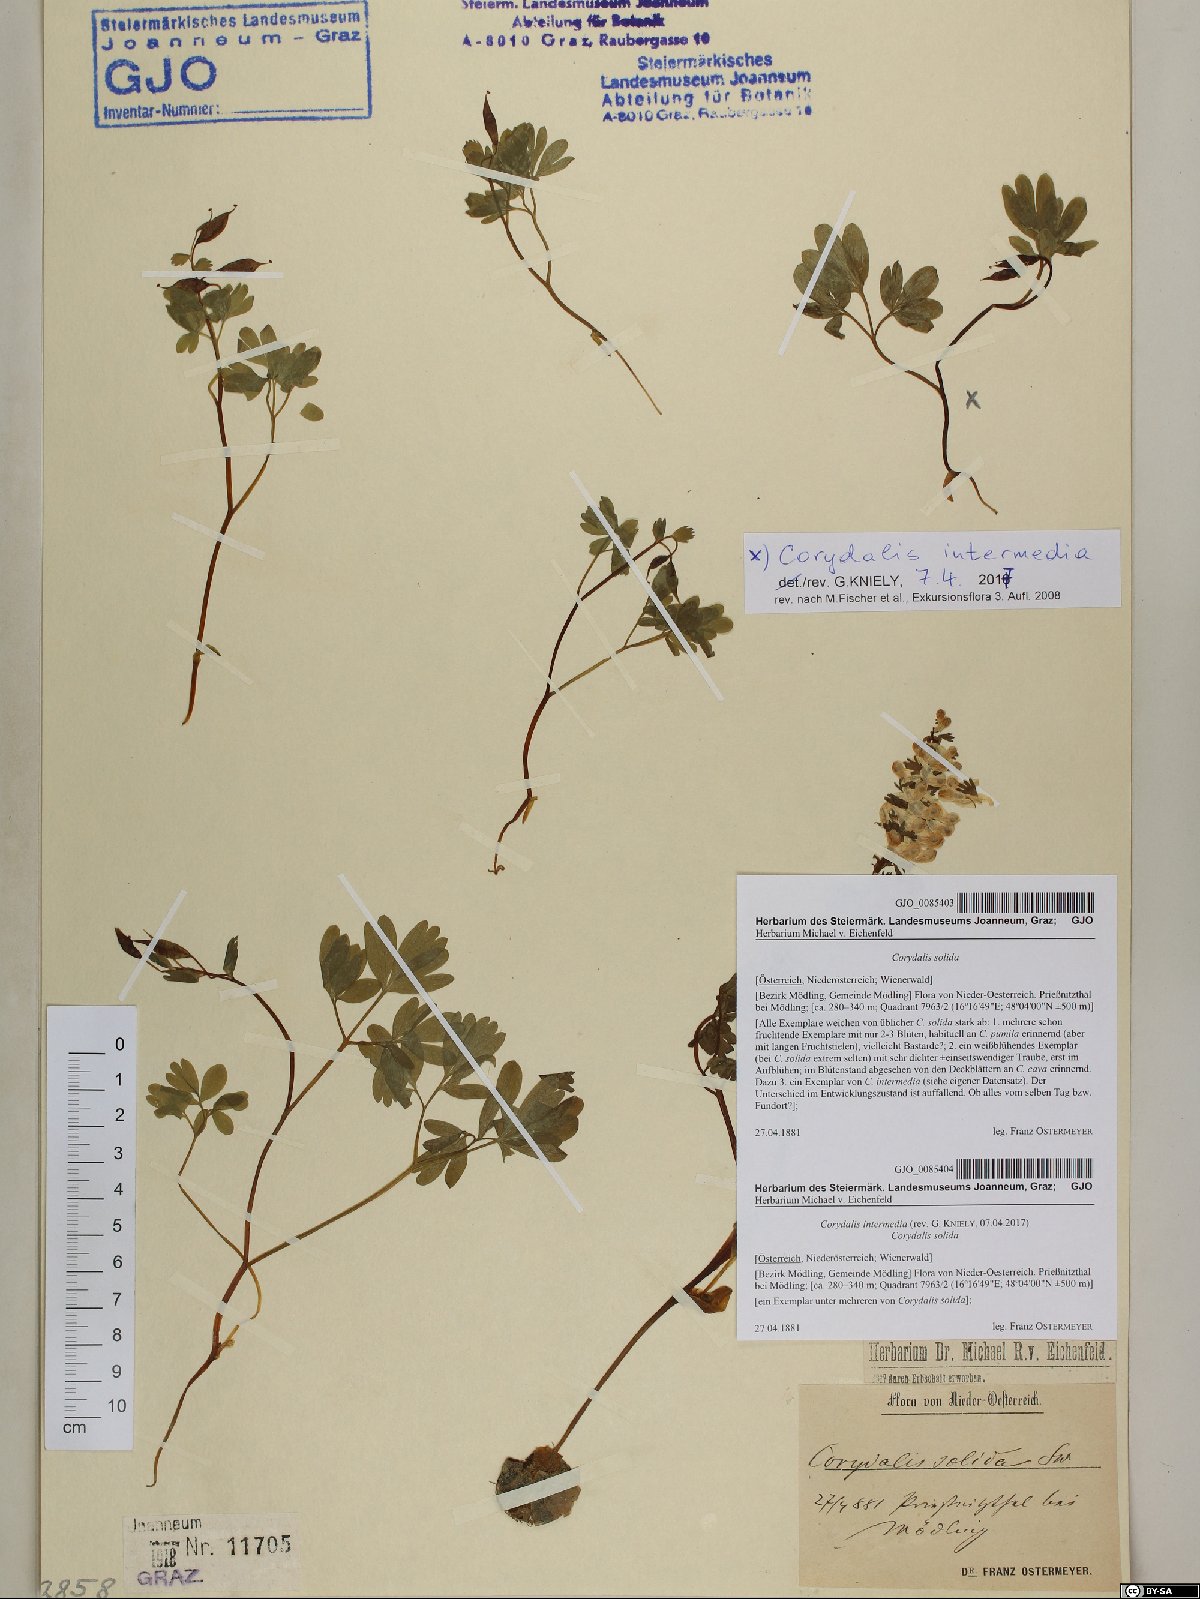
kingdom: Plantae
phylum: Tracheophyta
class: Magnoliopsida
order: Ranunculales
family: Papaveraceae
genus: Corydalis
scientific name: Corydalis intermedia
